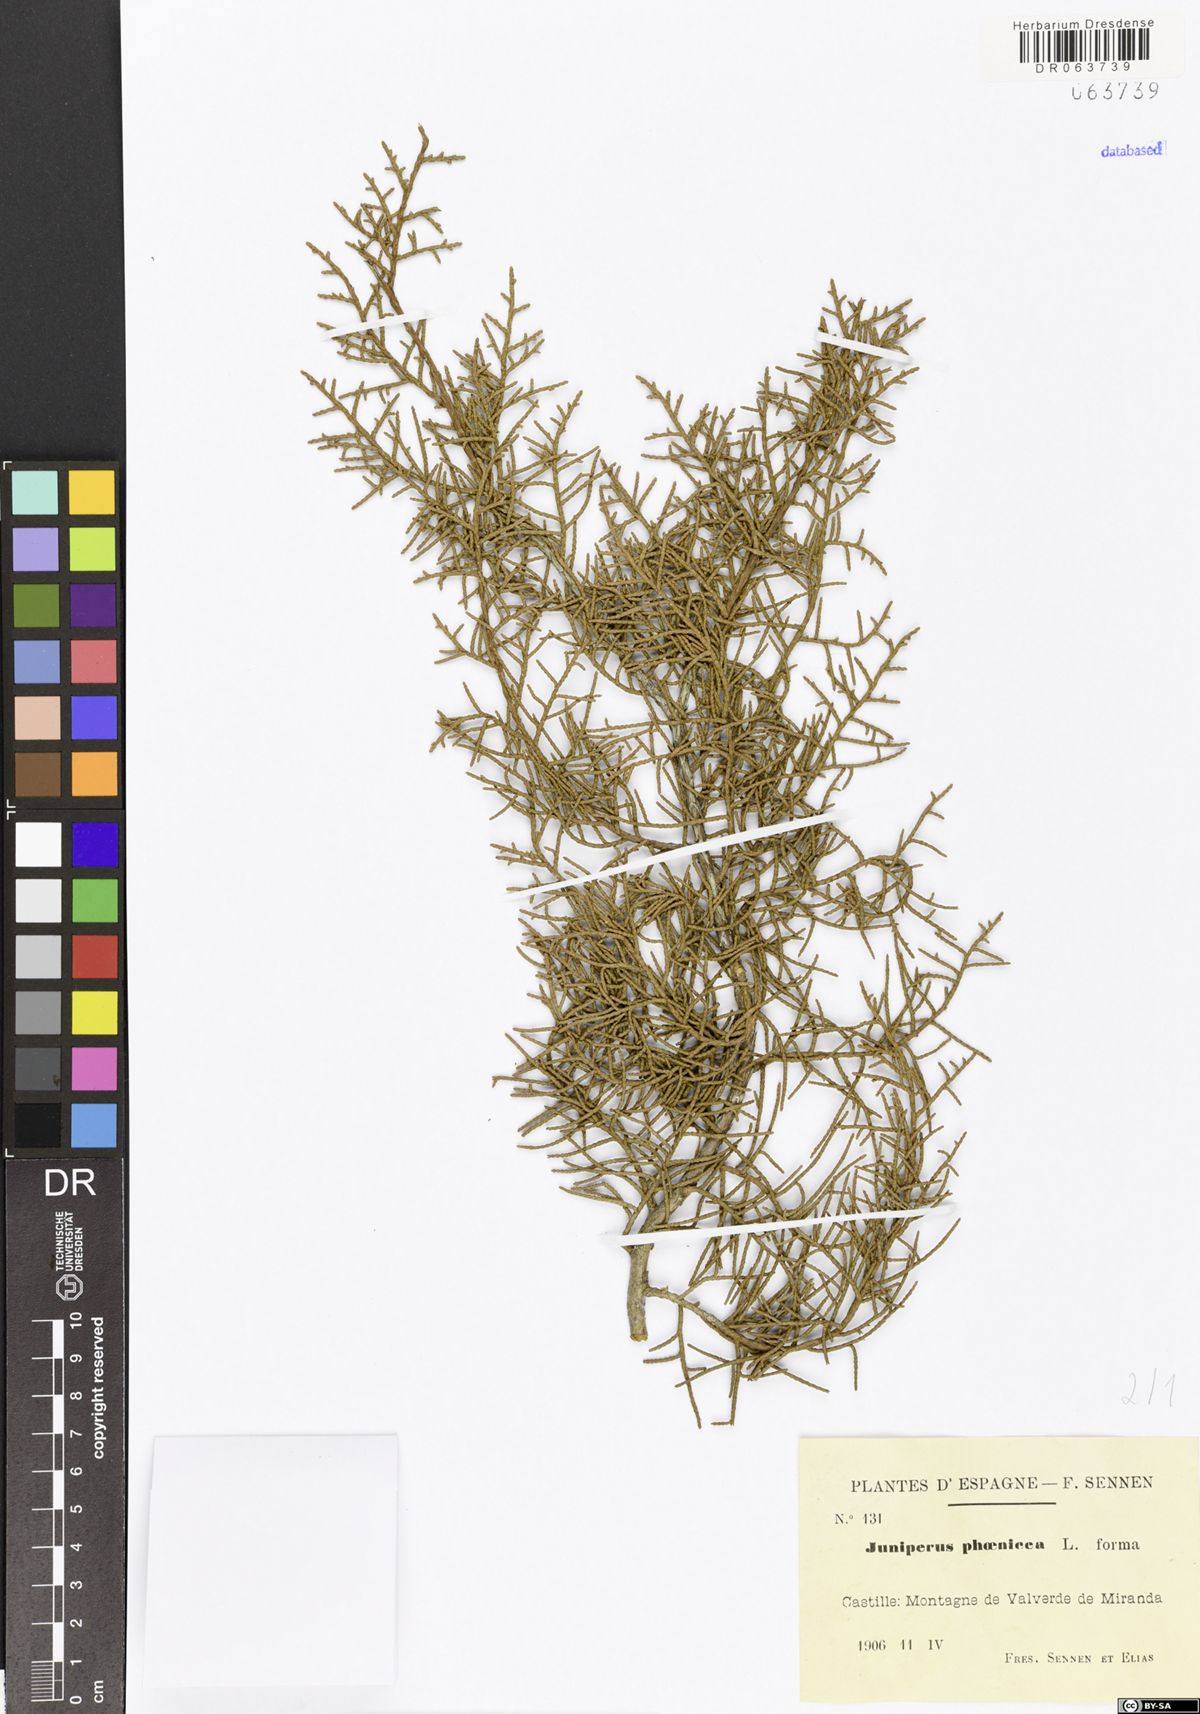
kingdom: Plantae
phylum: Tracheophyta
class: Pinopsida
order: Pinales
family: Cupressaceae
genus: Juniperus
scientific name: Juniperus phoenicea
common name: Phoenician juniper
